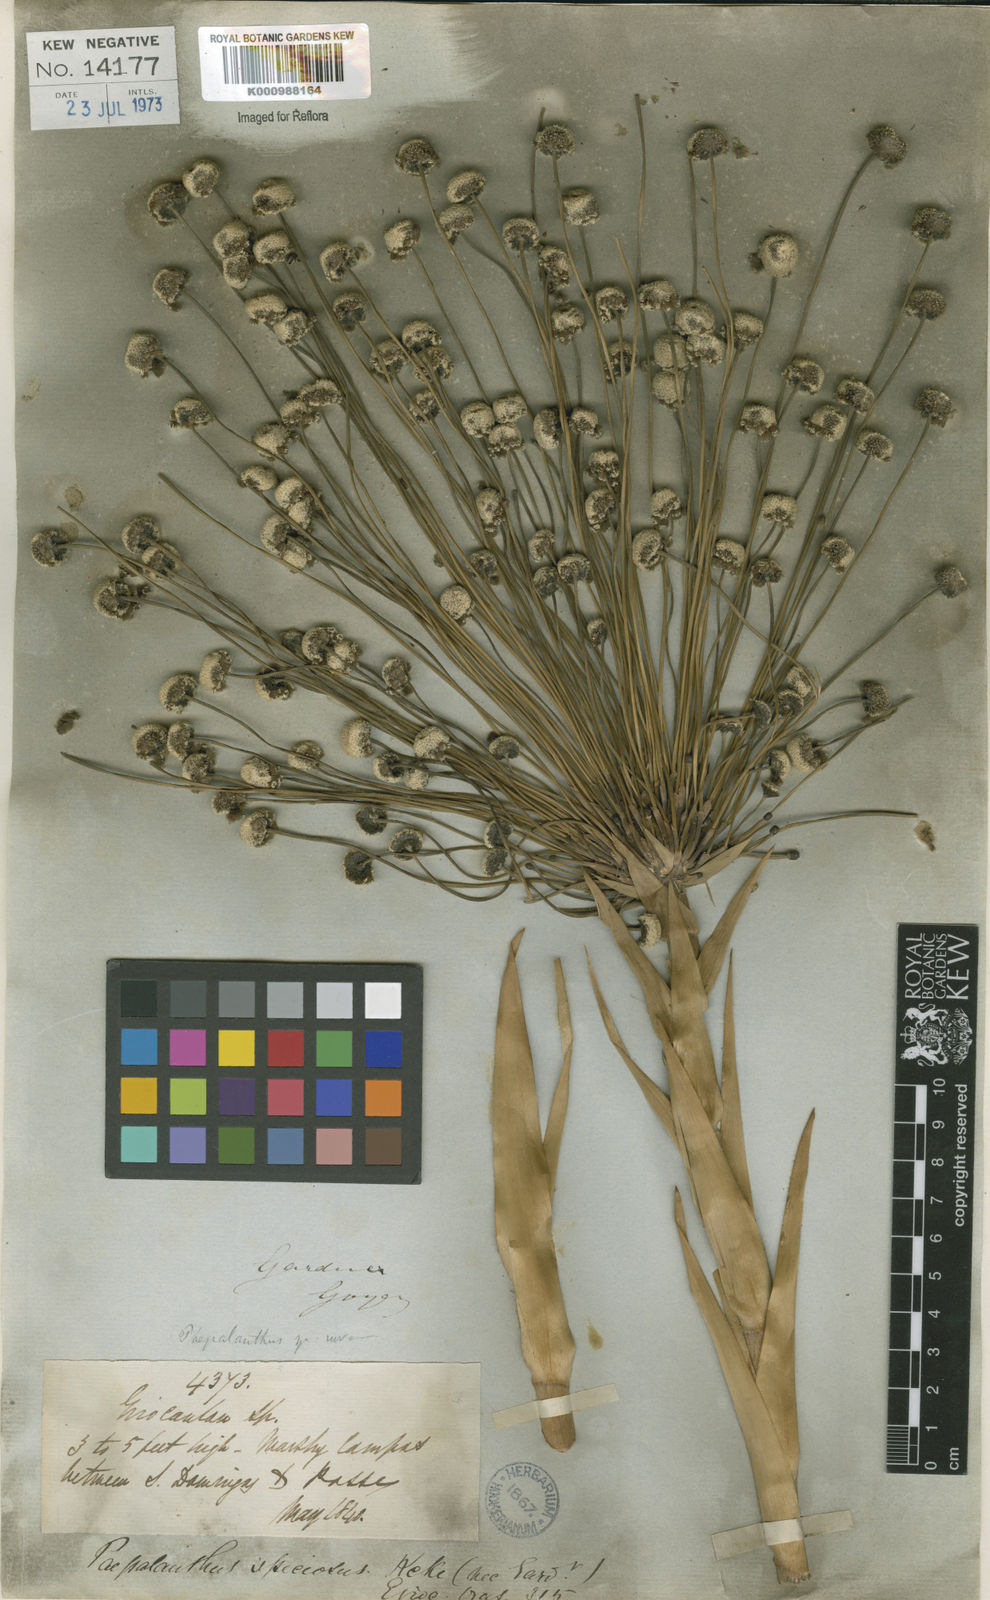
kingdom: Plantae
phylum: Tracheophyta
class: Liliopsida
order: Poales
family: Eriocaulaceae
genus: Paepalanthus
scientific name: Paepalanthus
